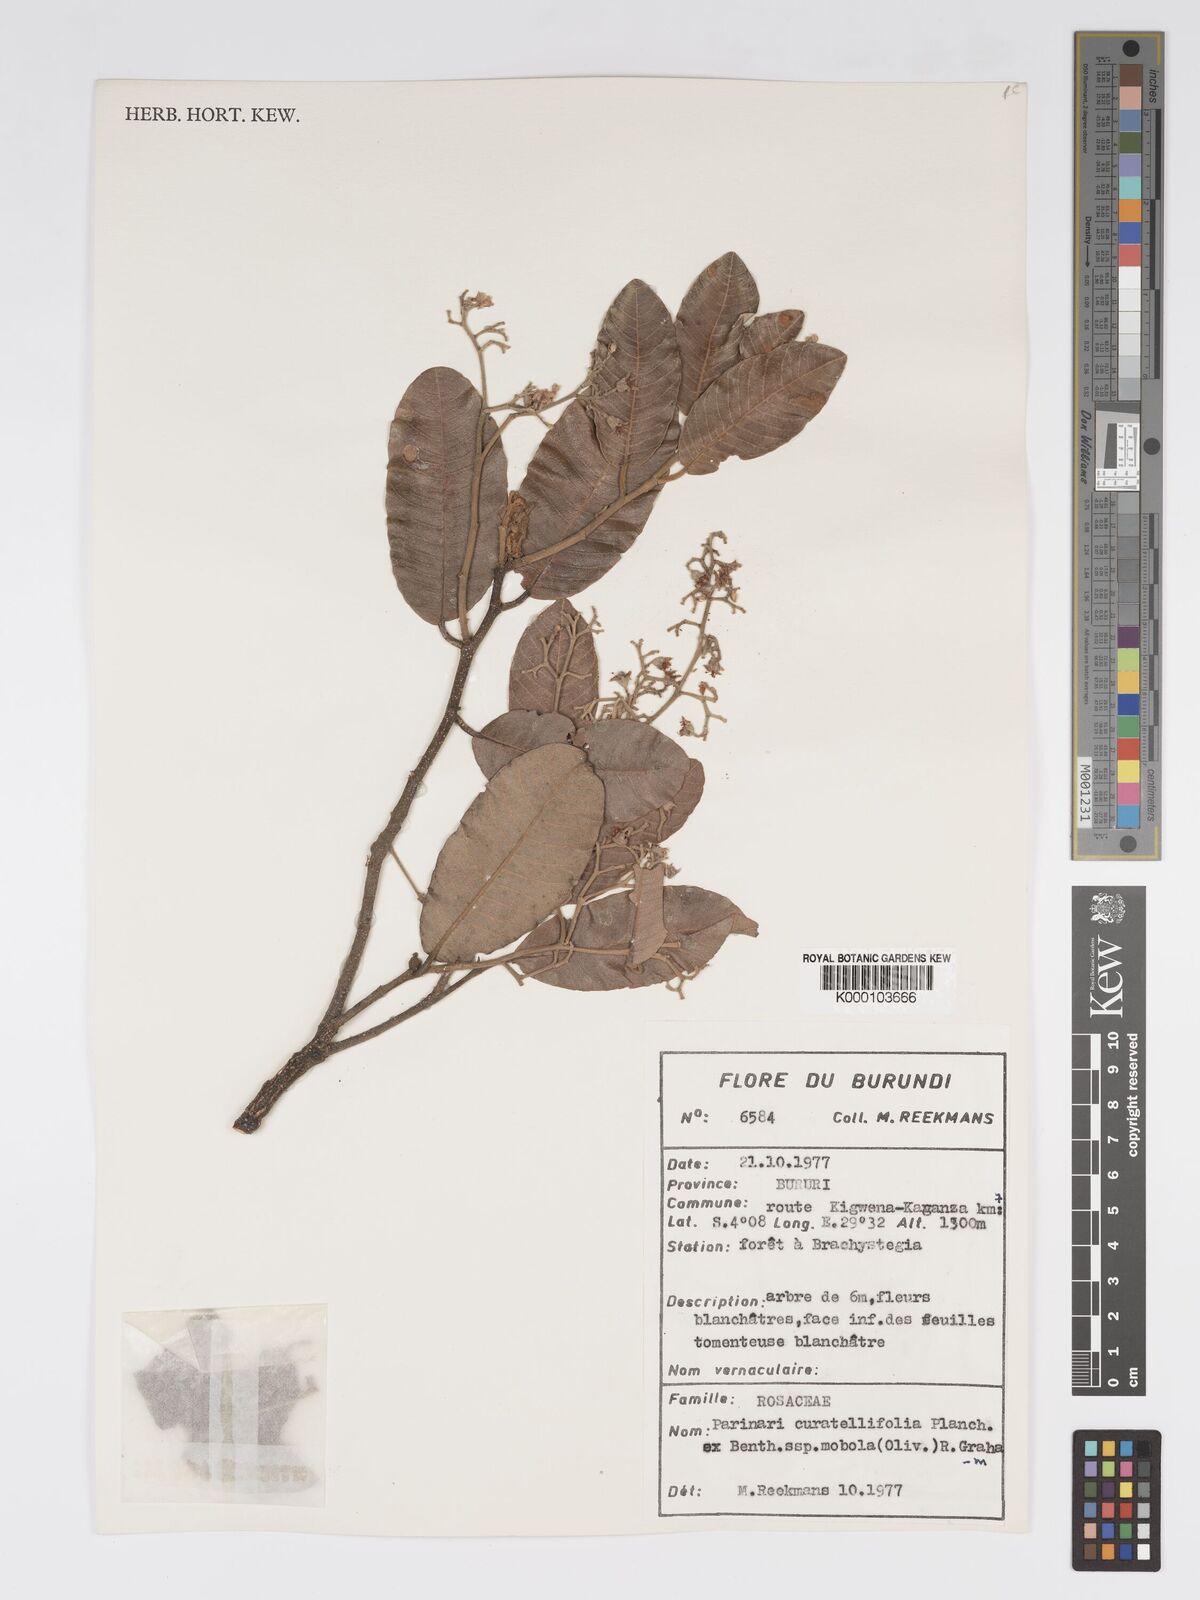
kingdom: Plantae
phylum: Tracheophyta
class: Magnoliopsida
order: Malpighiales
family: Chrysobalanaceae
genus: Parinari
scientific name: Parinari curatellifolia
